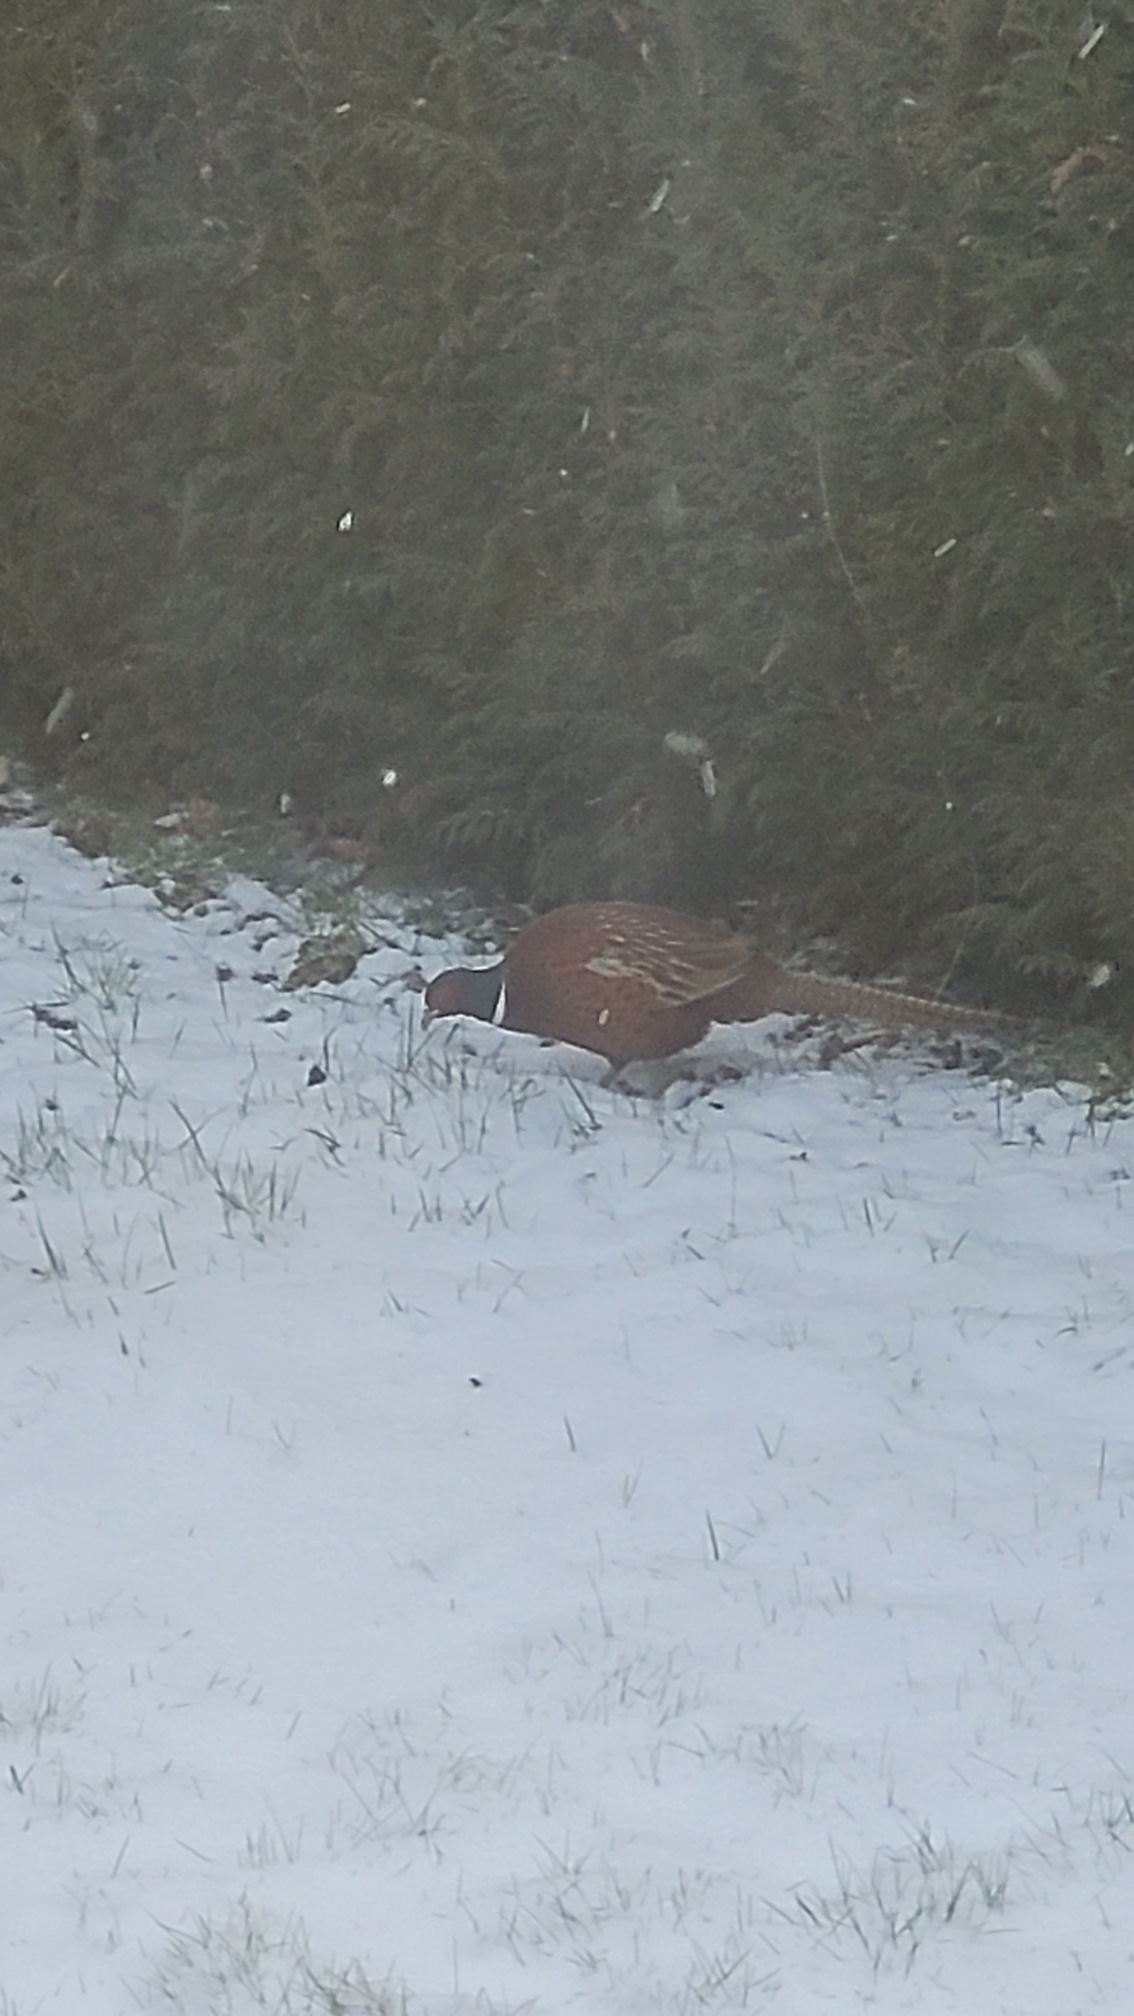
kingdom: Animalia
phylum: Chordata
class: Aves
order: Galliformes
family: Phasianidae
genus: Phasianus
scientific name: Phasianus colchicus
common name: Fasan
